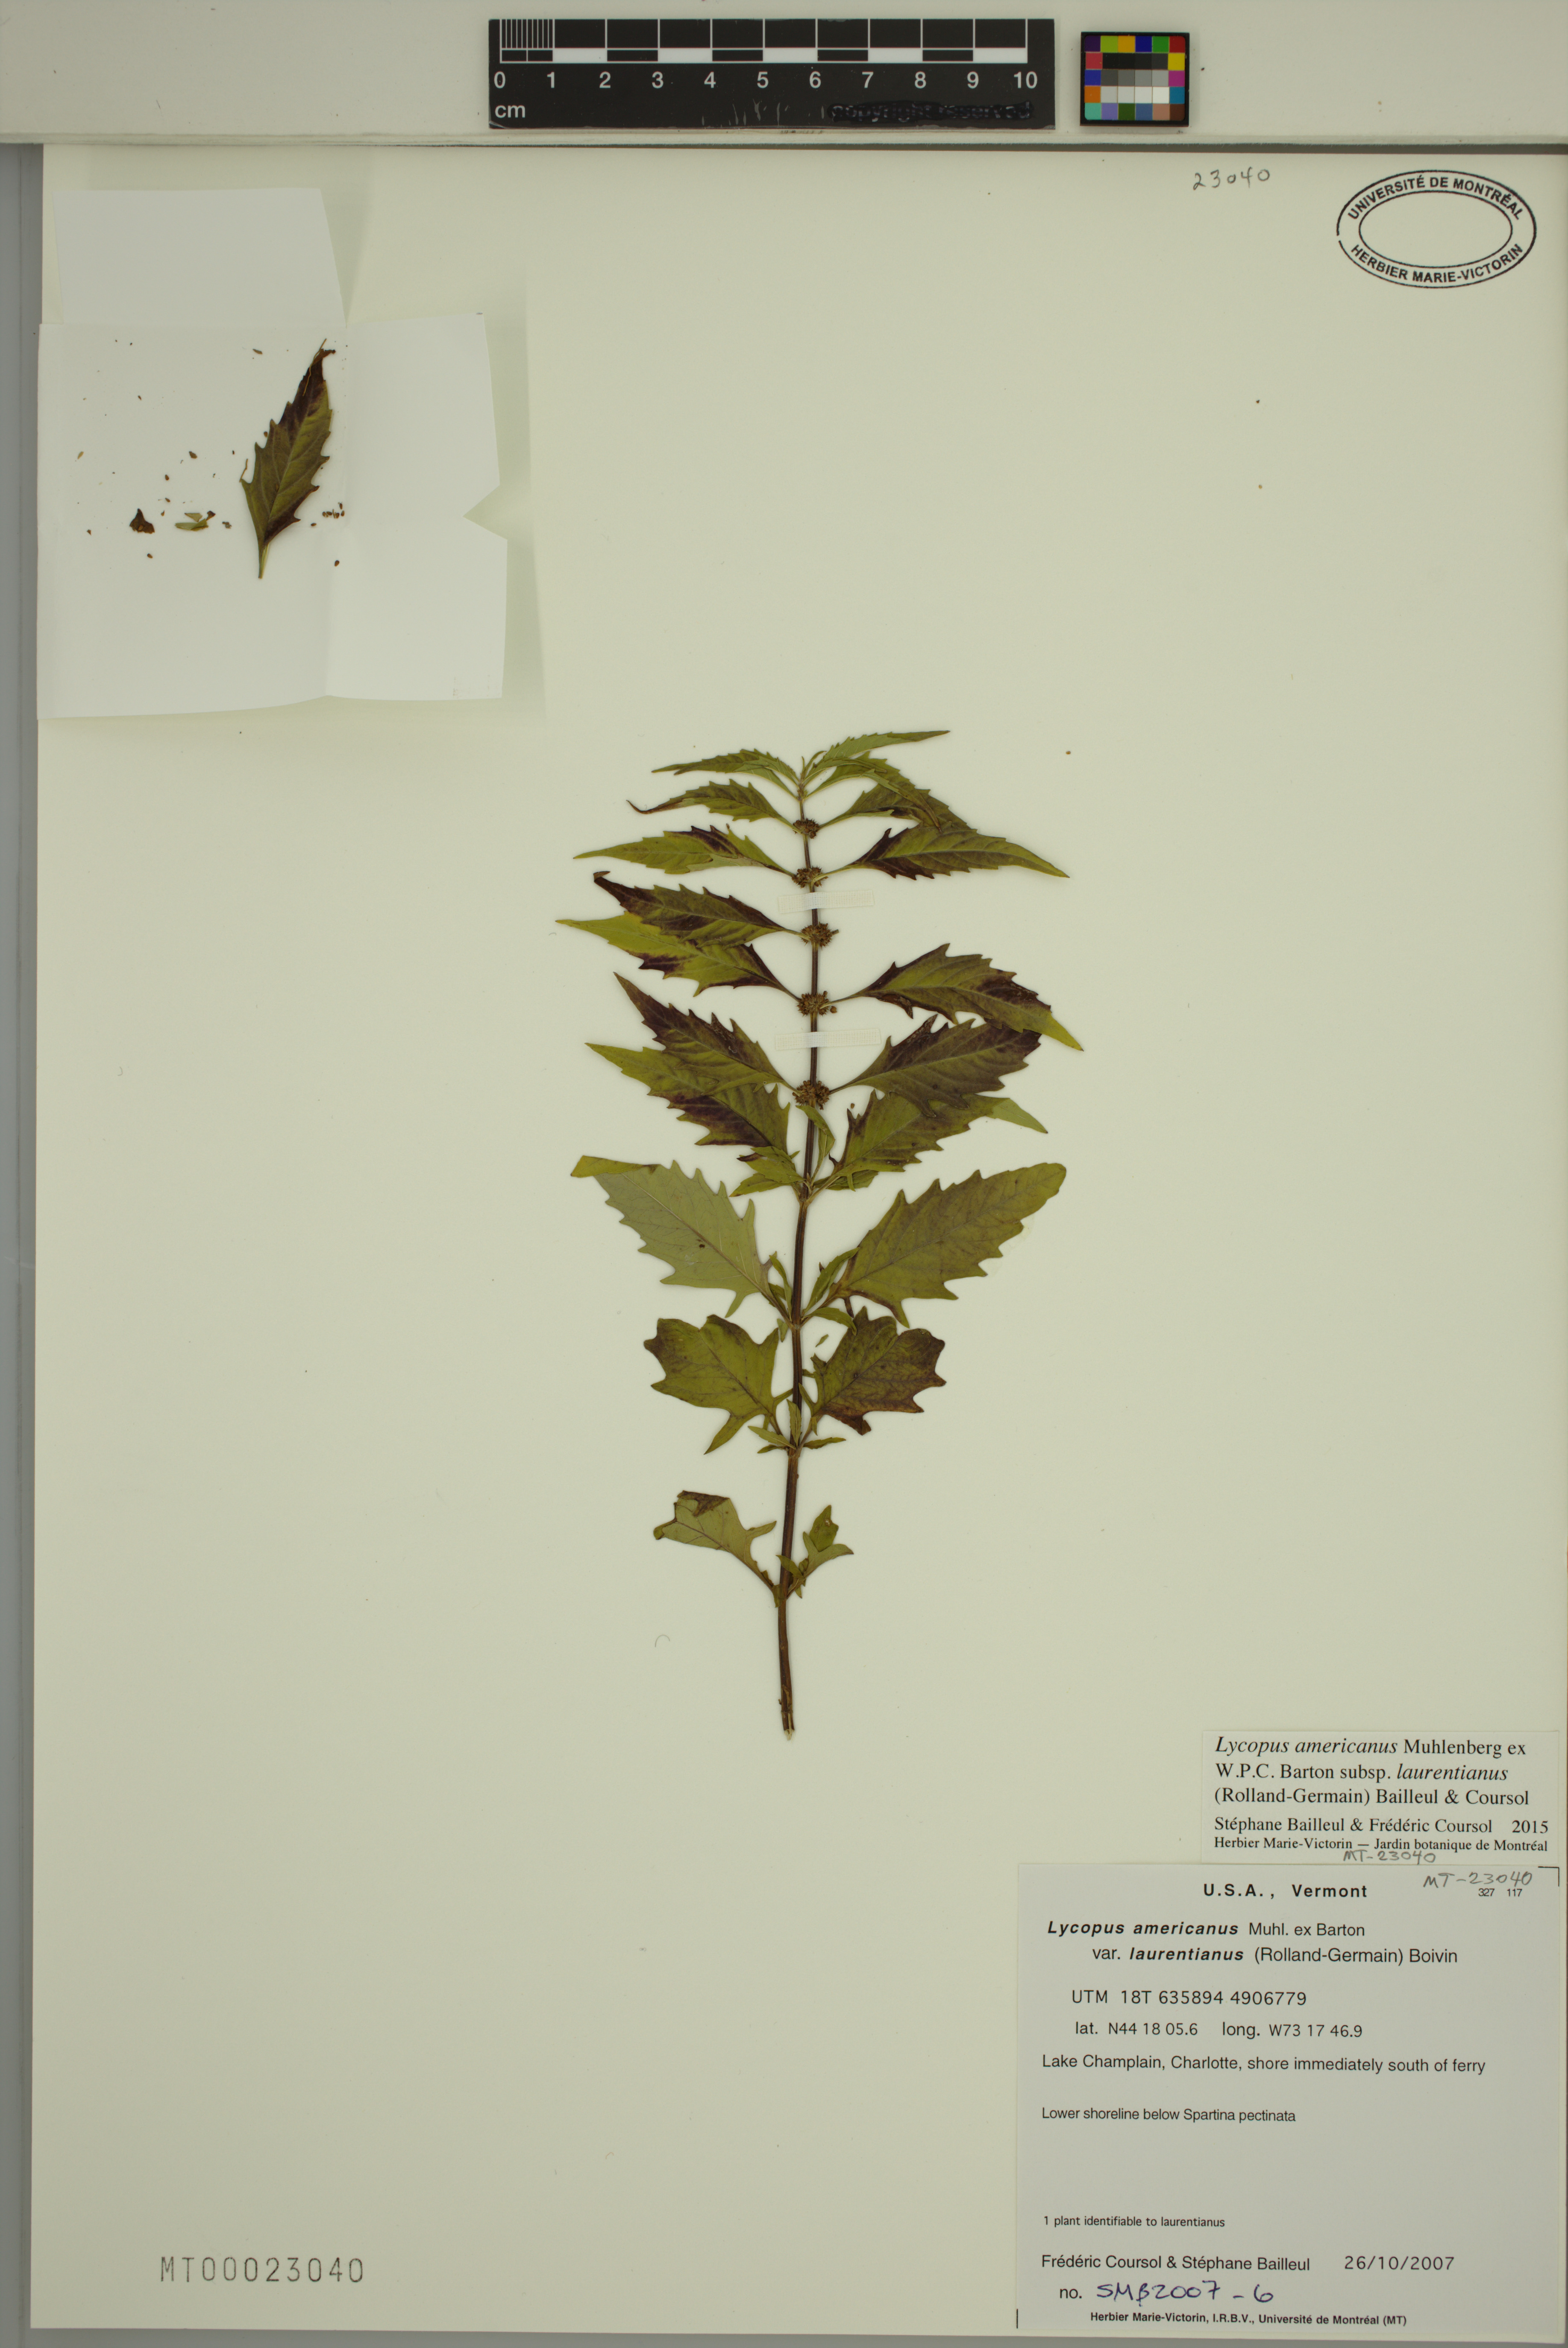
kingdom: Plantae
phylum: Tracheophyta
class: Magnoliopsida
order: Lamiales
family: Lamiaceae
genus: Lycopus
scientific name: Lycopus americanus
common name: American bugleweed
